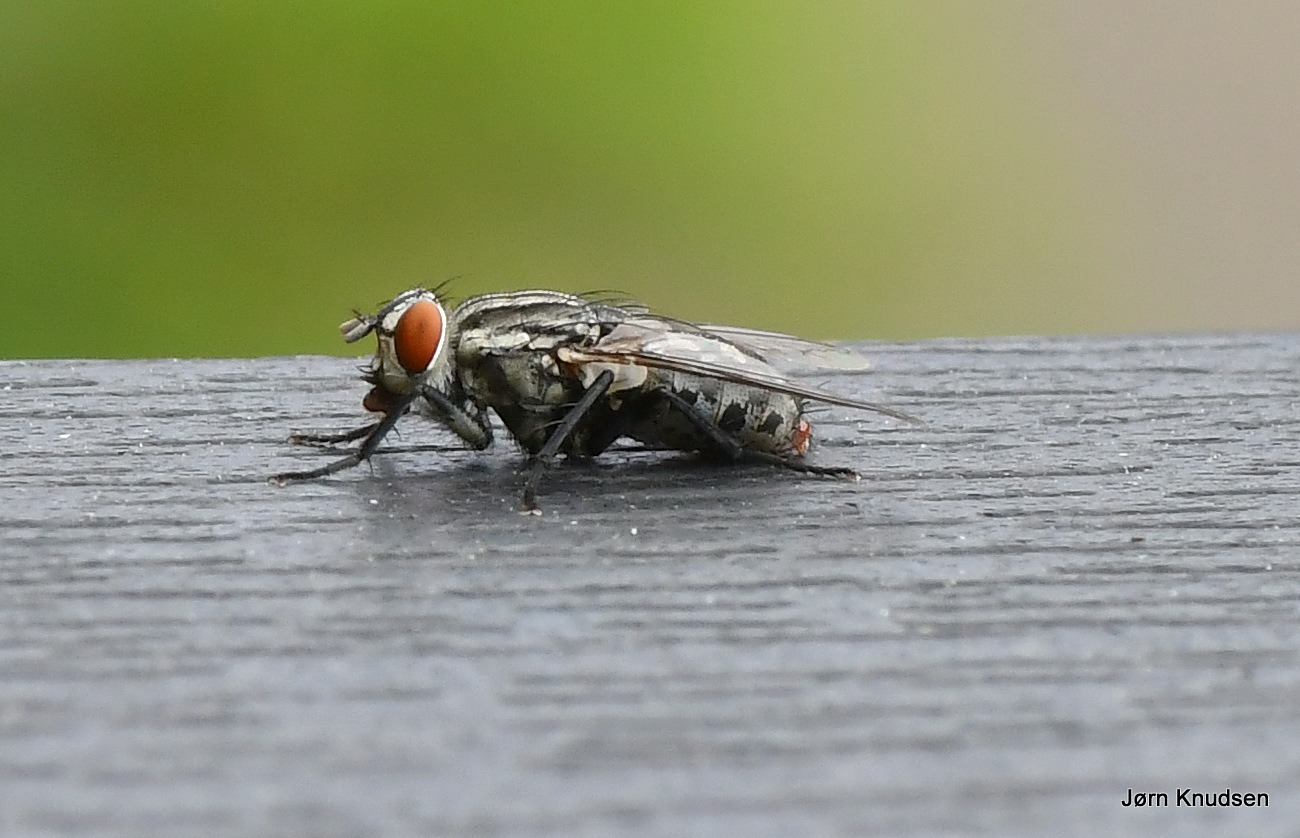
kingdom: Animalia
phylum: Arthropoda
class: Insecta
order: Diptera
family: Sarcophagidae
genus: Sarcophaga
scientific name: Sarcophaga
